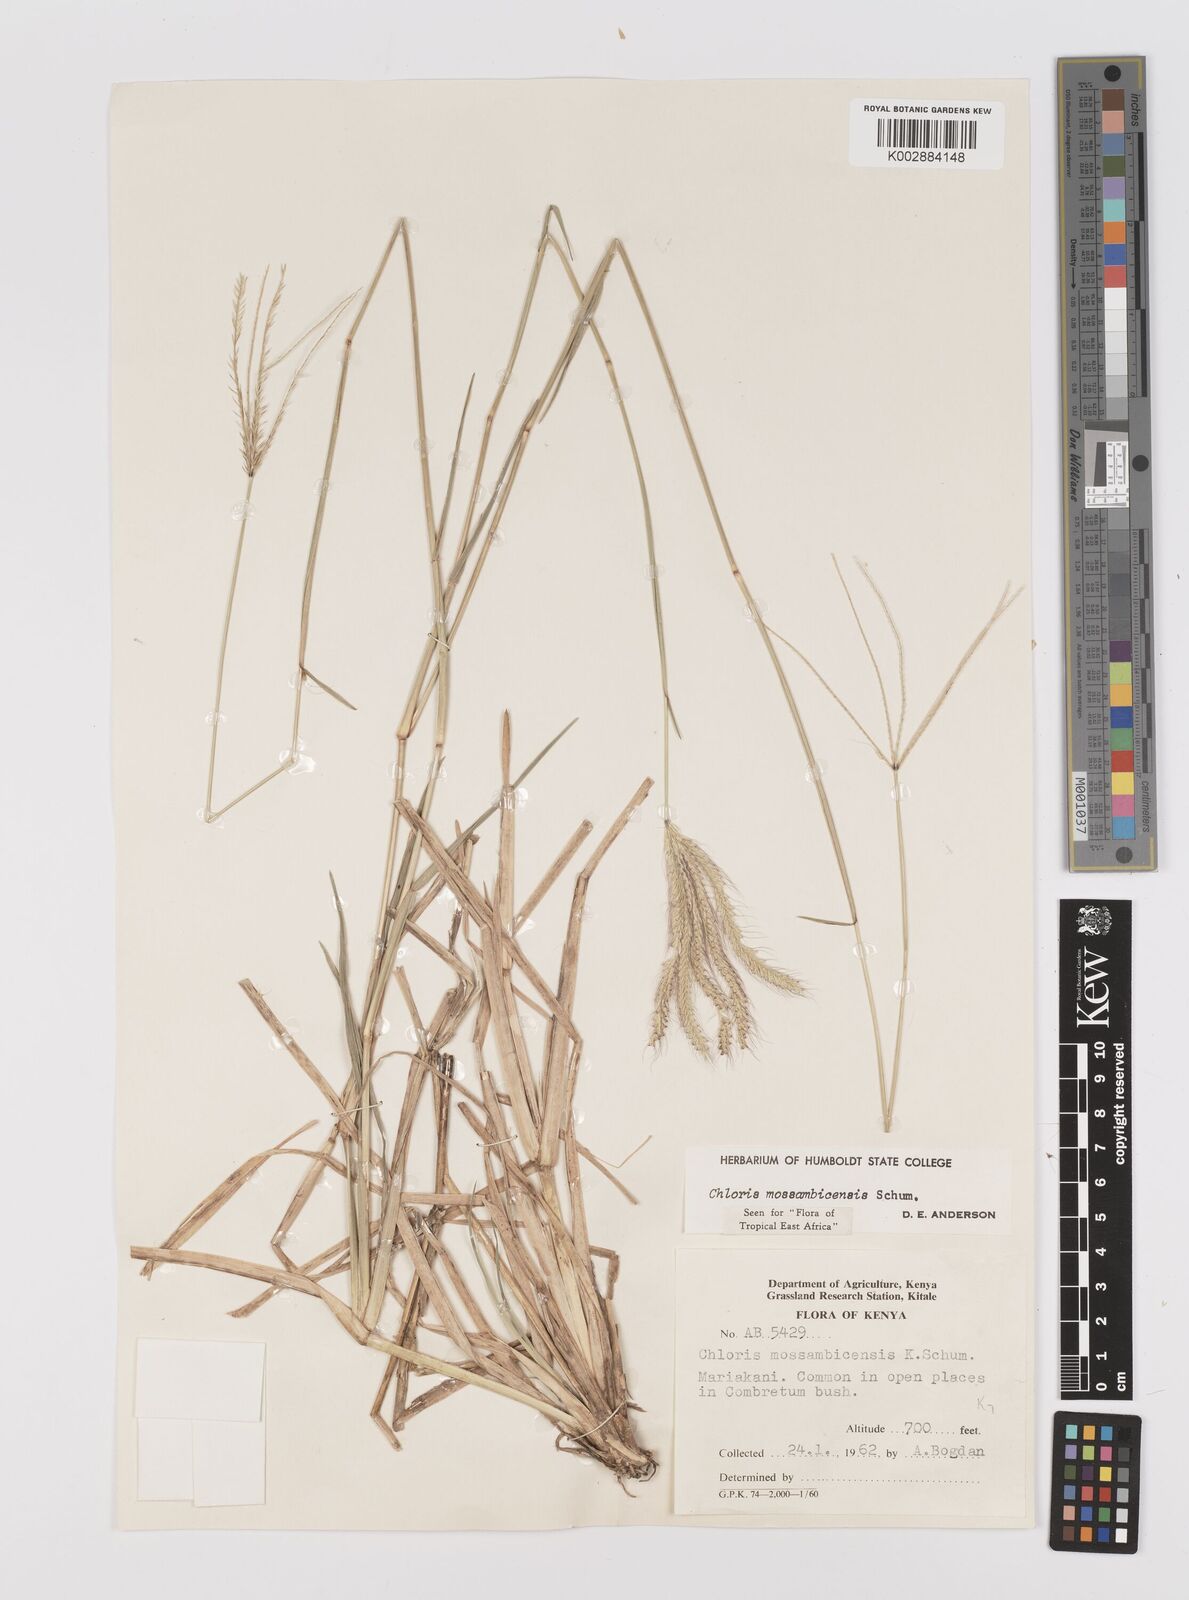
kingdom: Plantae
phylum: Tracheophyta
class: Liliopsida
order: Poales
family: Poaceae
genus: Chloris
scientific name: Chloris mossambicensis
